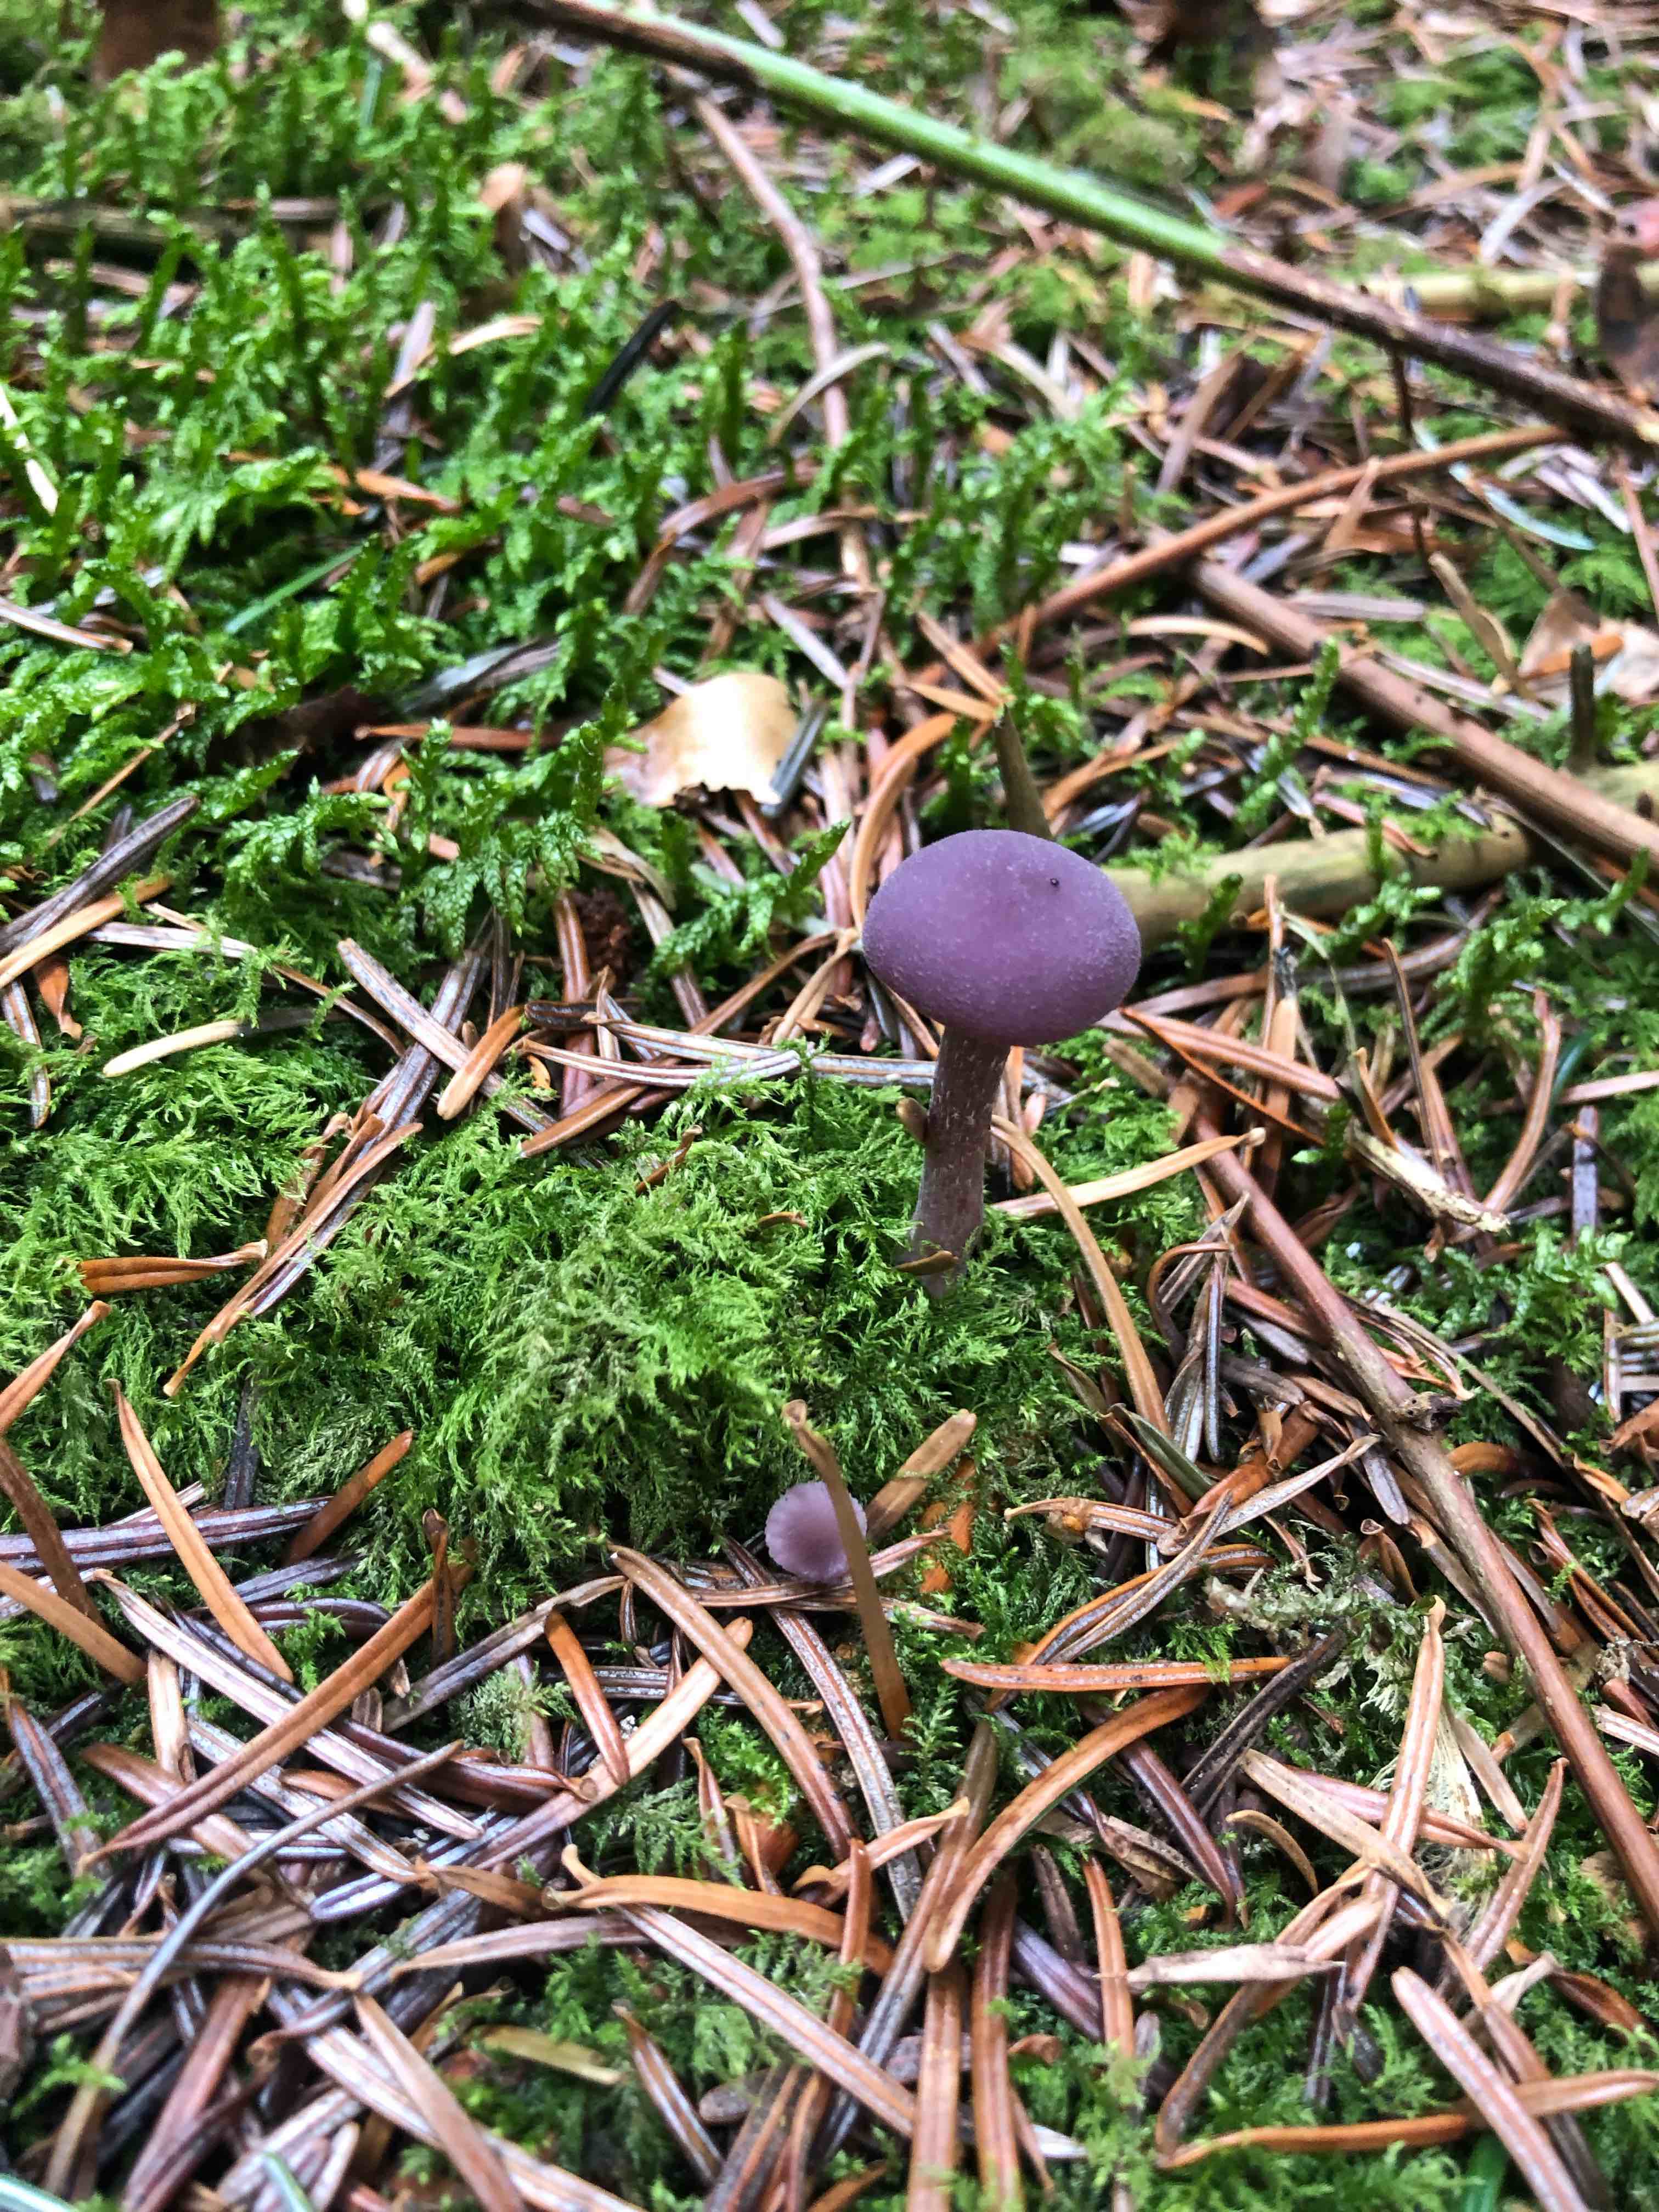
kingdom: Fungi
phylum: Basidiomycota
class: Agaricomycetes
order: Agaricales
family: Hydnangiaceae
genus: Laccaria
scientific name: Laccaria amethystina
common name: violet ametysthat
